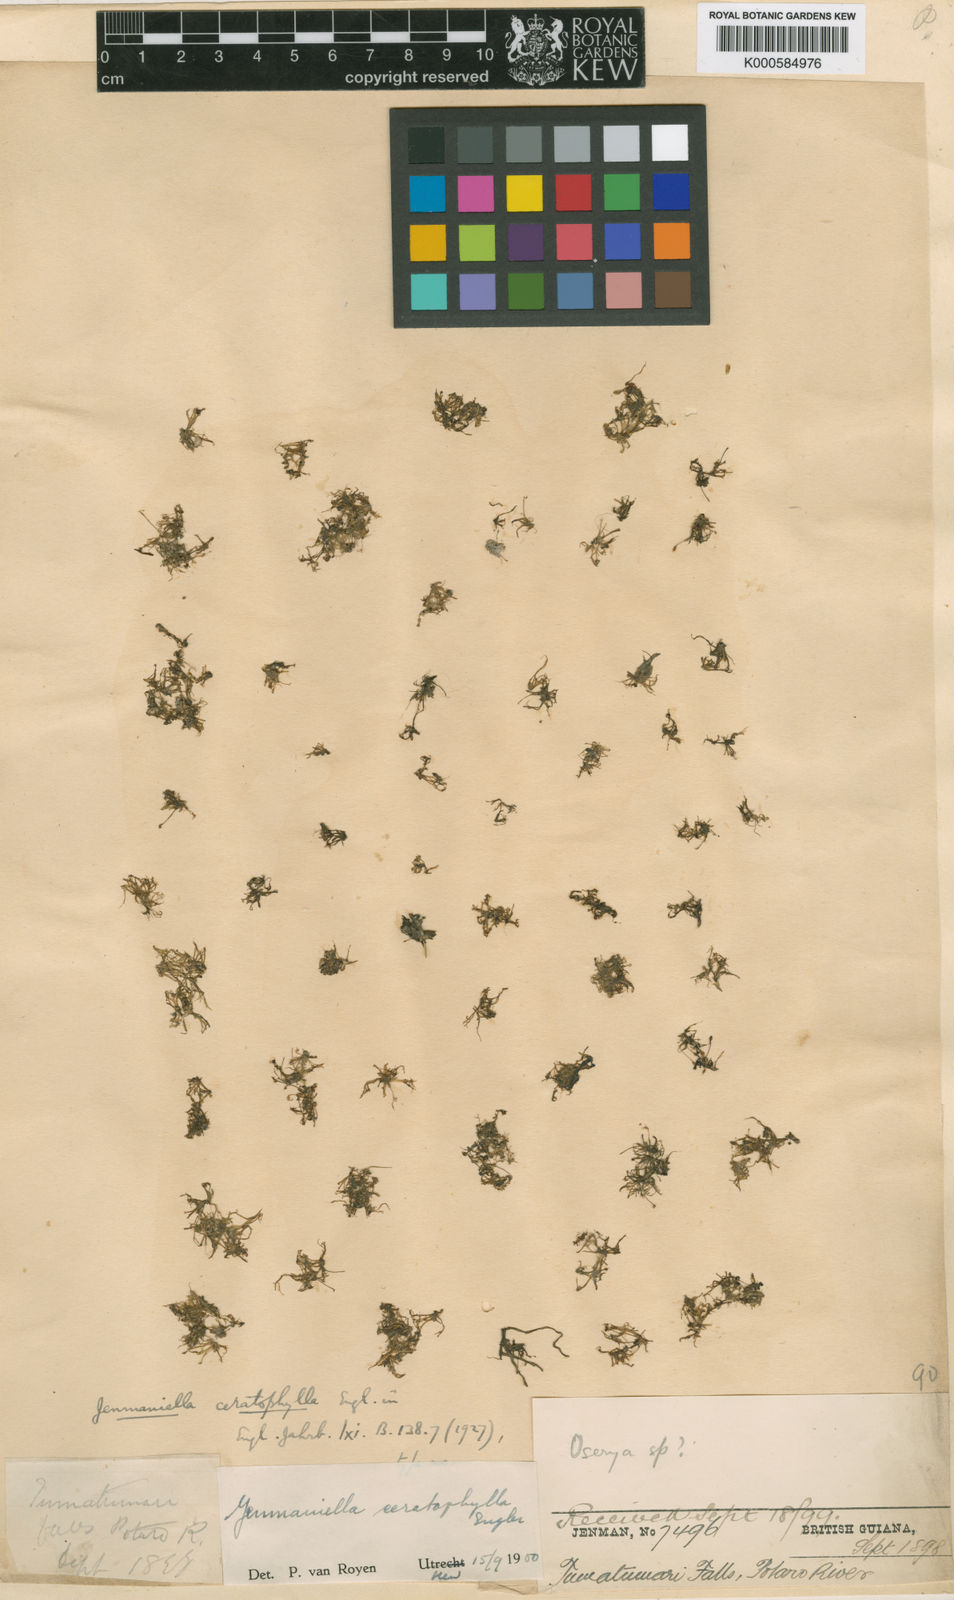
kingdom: Plantae
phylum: Tracheophyta
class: Magnoliopsida
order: Malpighiales
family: Podostemaceae
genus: Lophogyne
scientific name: Lophogyne ceratophylla
